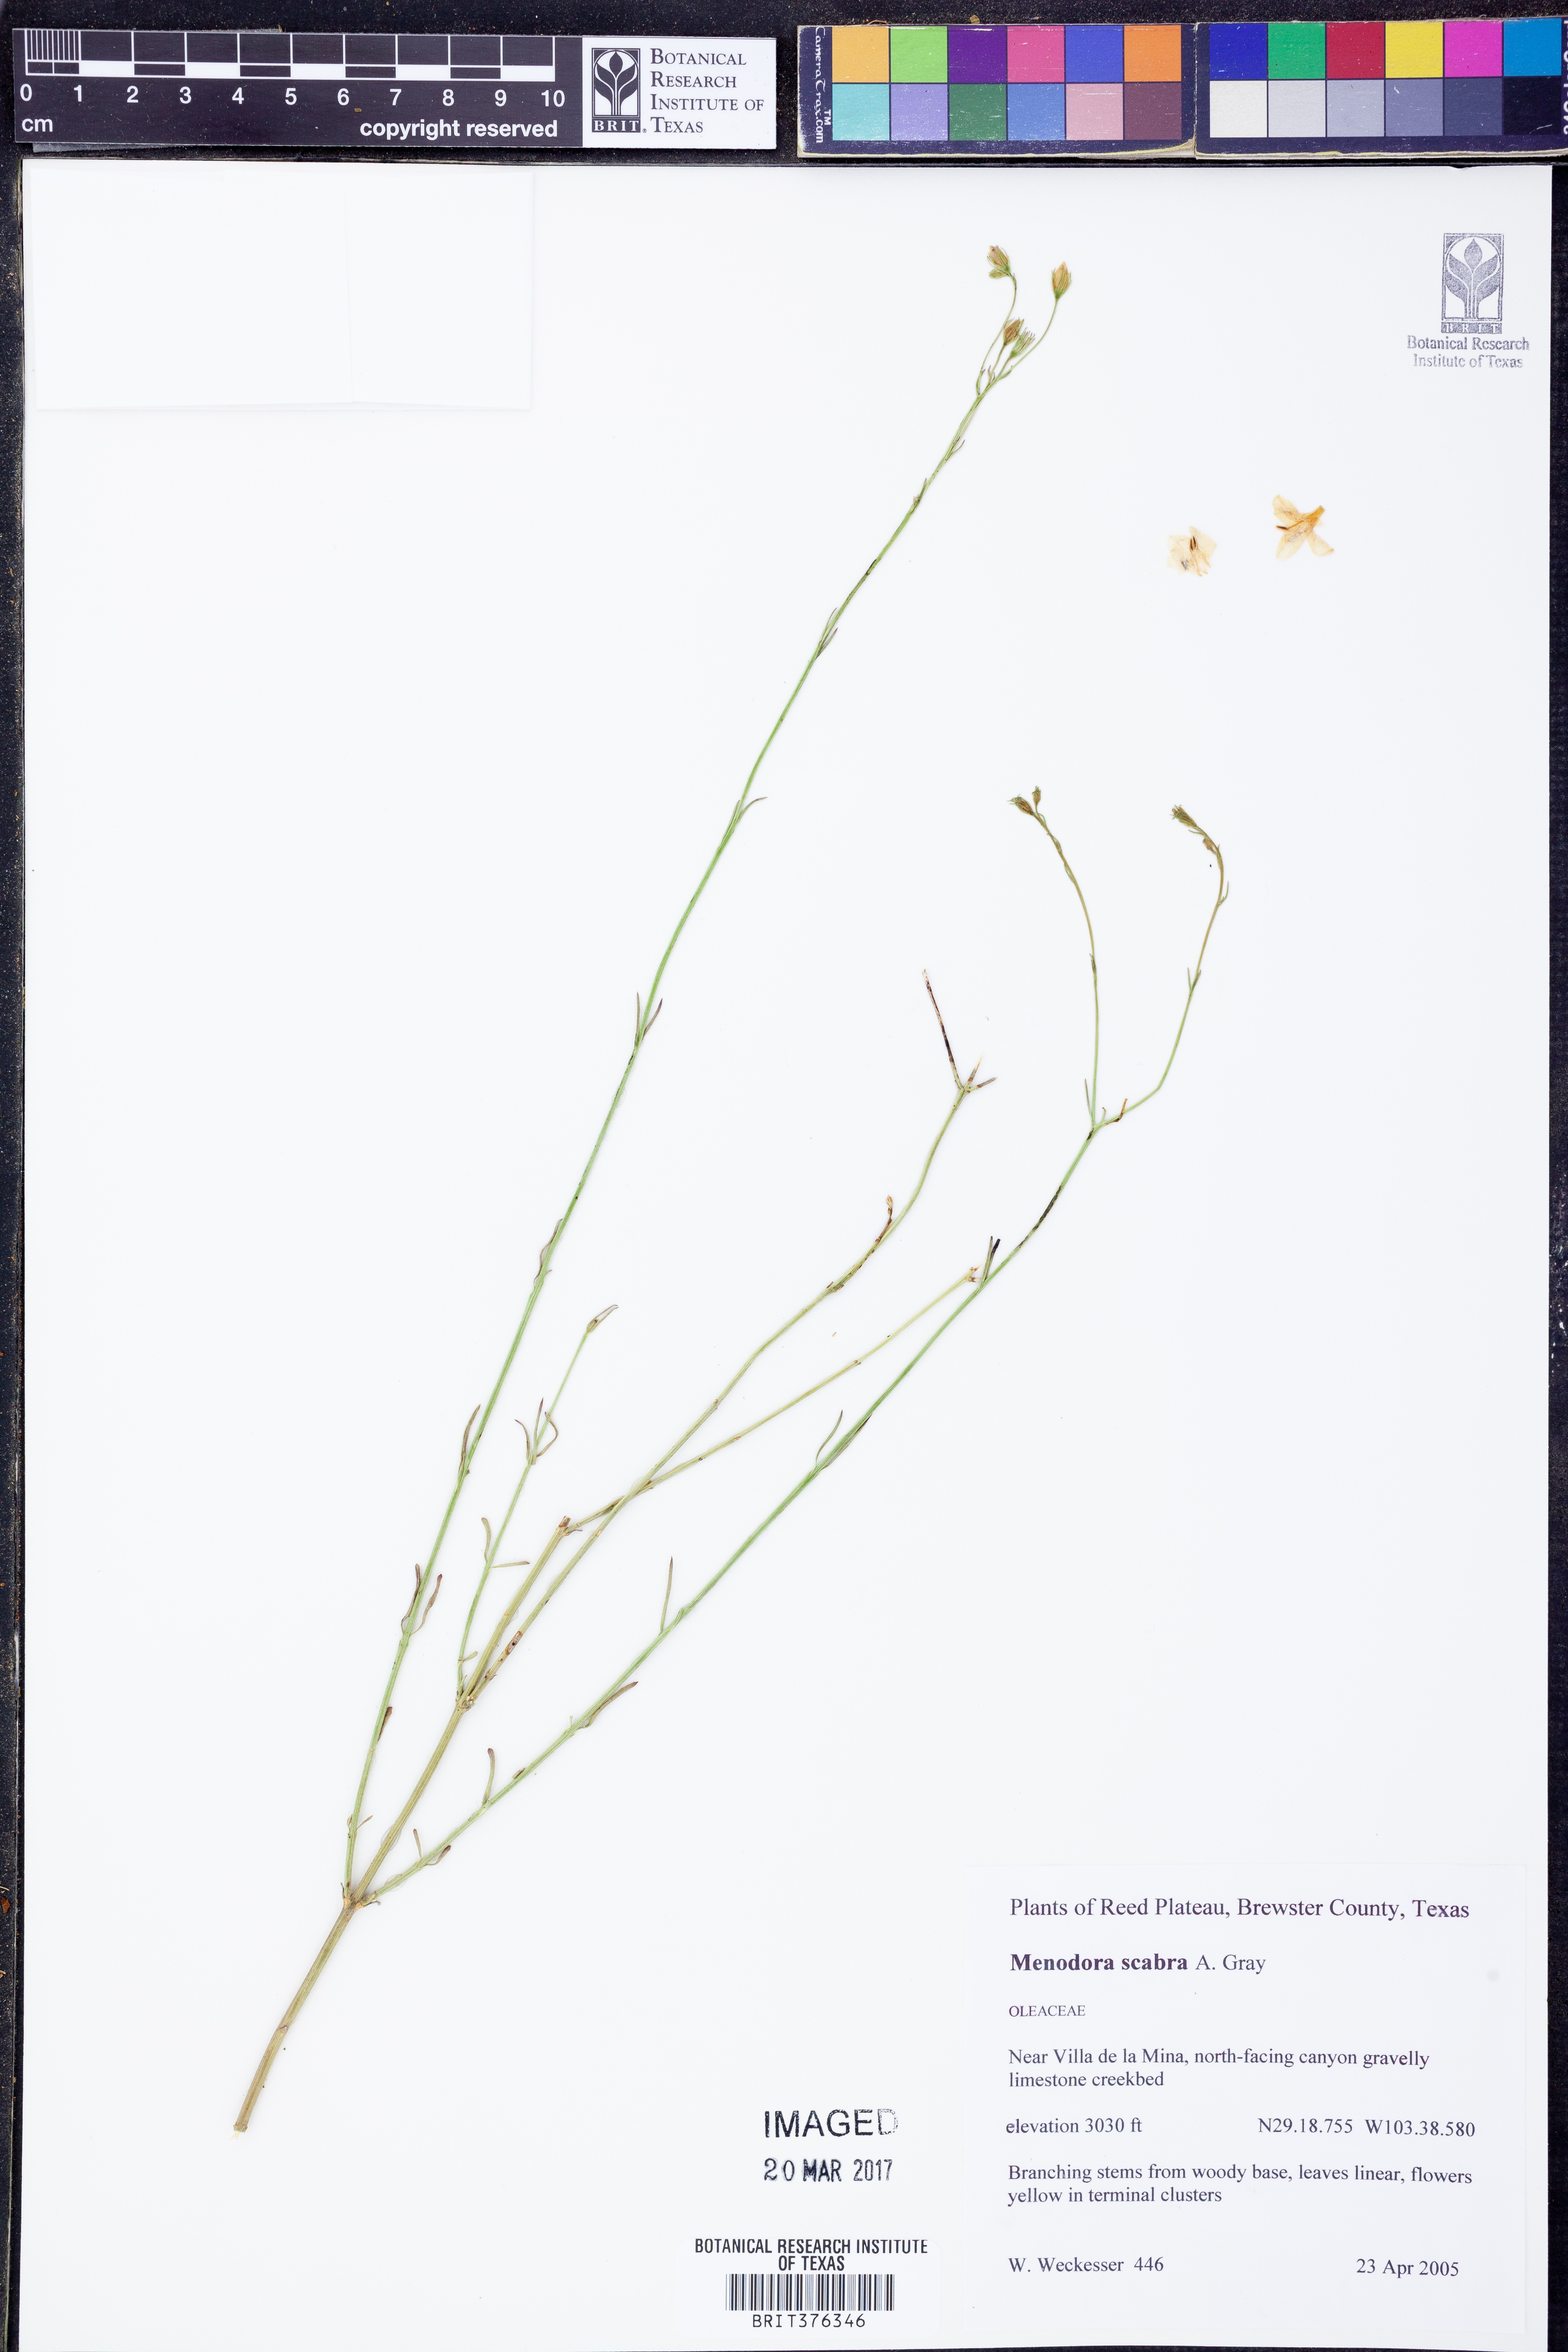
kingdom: Plantae
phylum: Tracheophyta
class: Magnoliopsida
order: Lamiales
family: Oleaceae
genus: Menodora
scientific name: Menodora scabra
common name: Rough menodora
